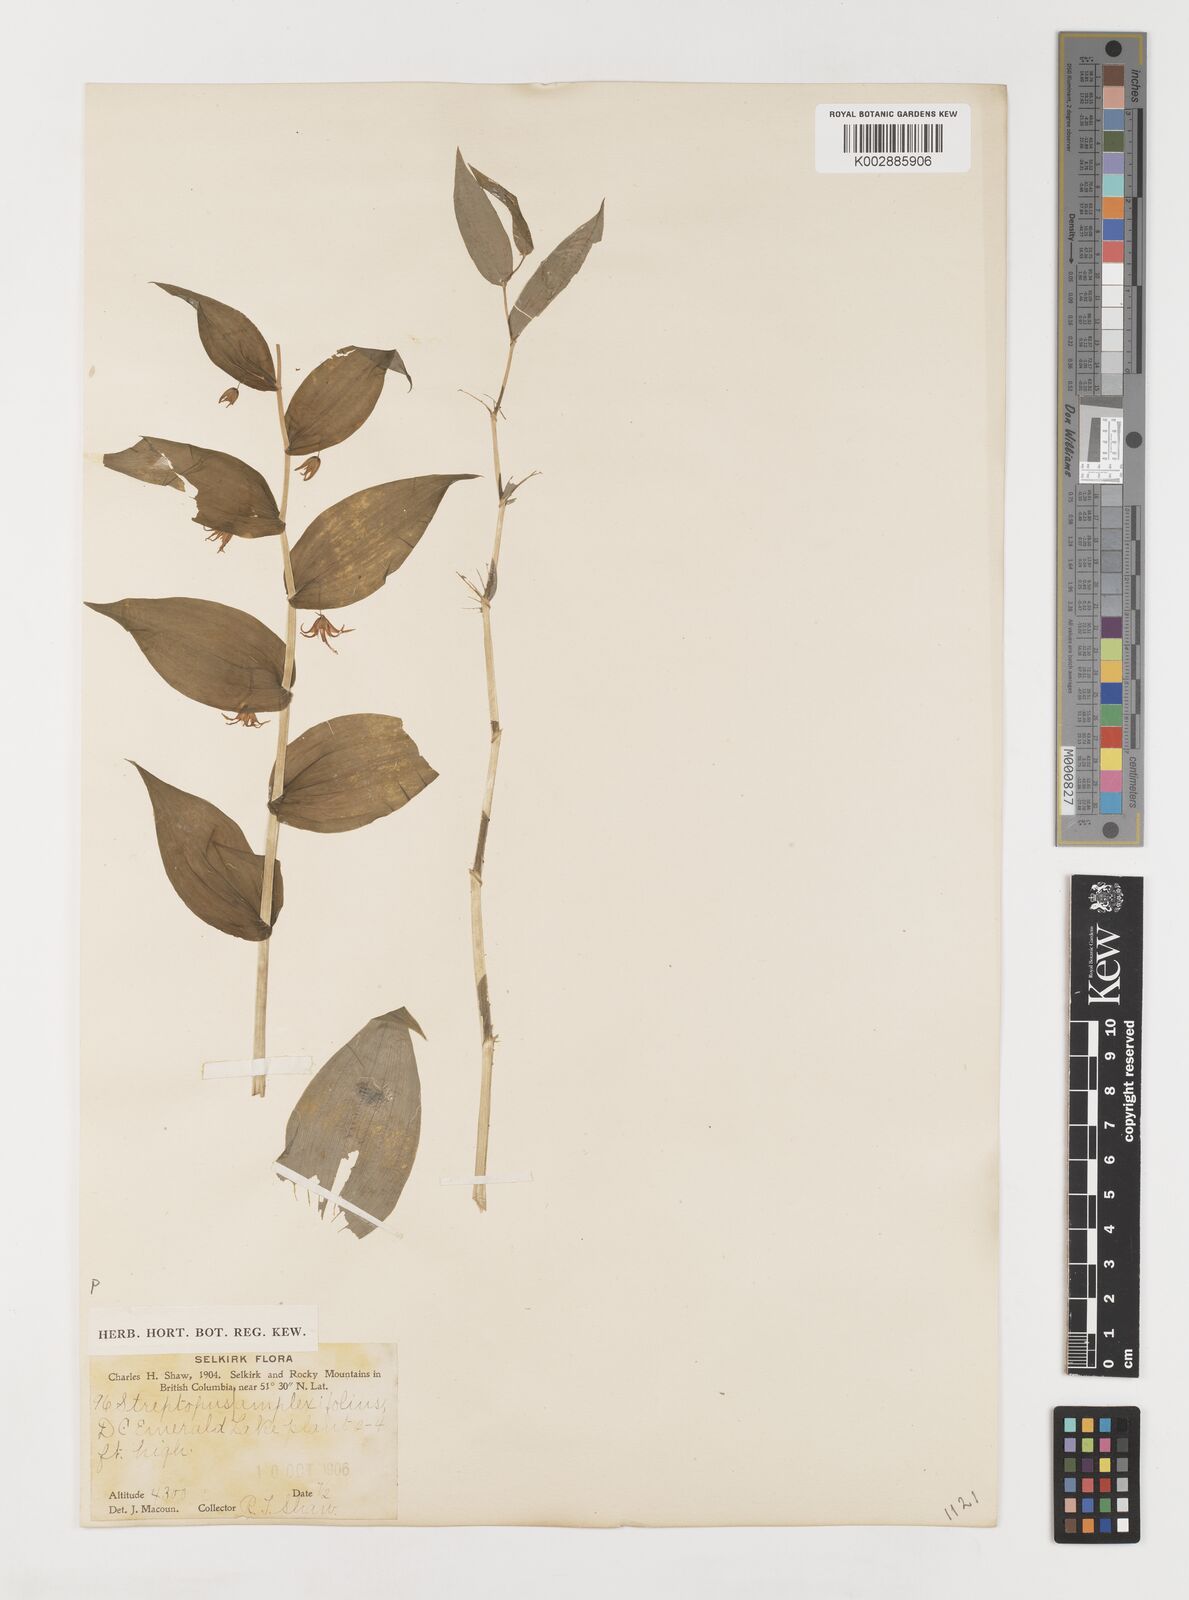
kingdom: Plantae
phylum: Tracheophyta
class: Liliopsida
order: Liliales
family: Liliaceae
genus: Streptopus
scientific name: Streptopus amplexifolius
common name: Clasp twisted stalk
